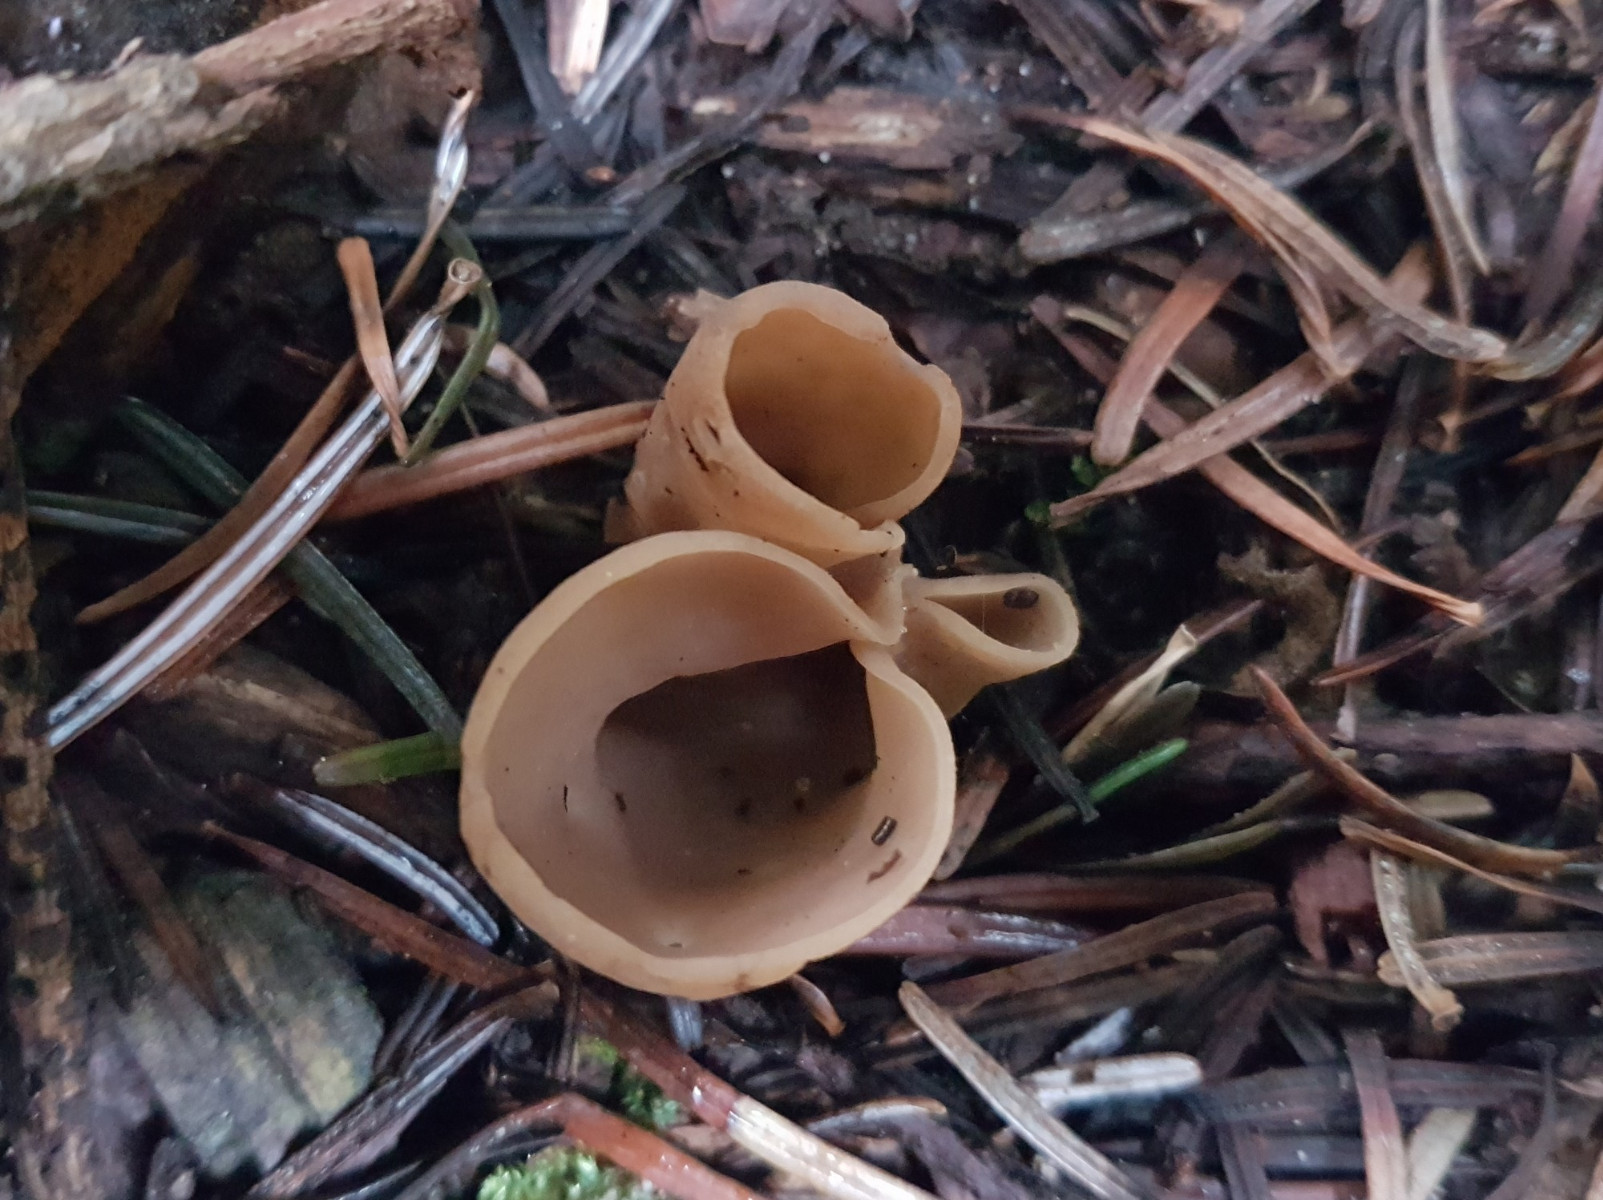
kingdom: Fungi
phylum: Ascomycota
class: Pezizomycetes
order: Pezizales
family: Otideaceae
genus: Otidea
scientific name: Otidea alutacea
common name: læder-ørebæger
